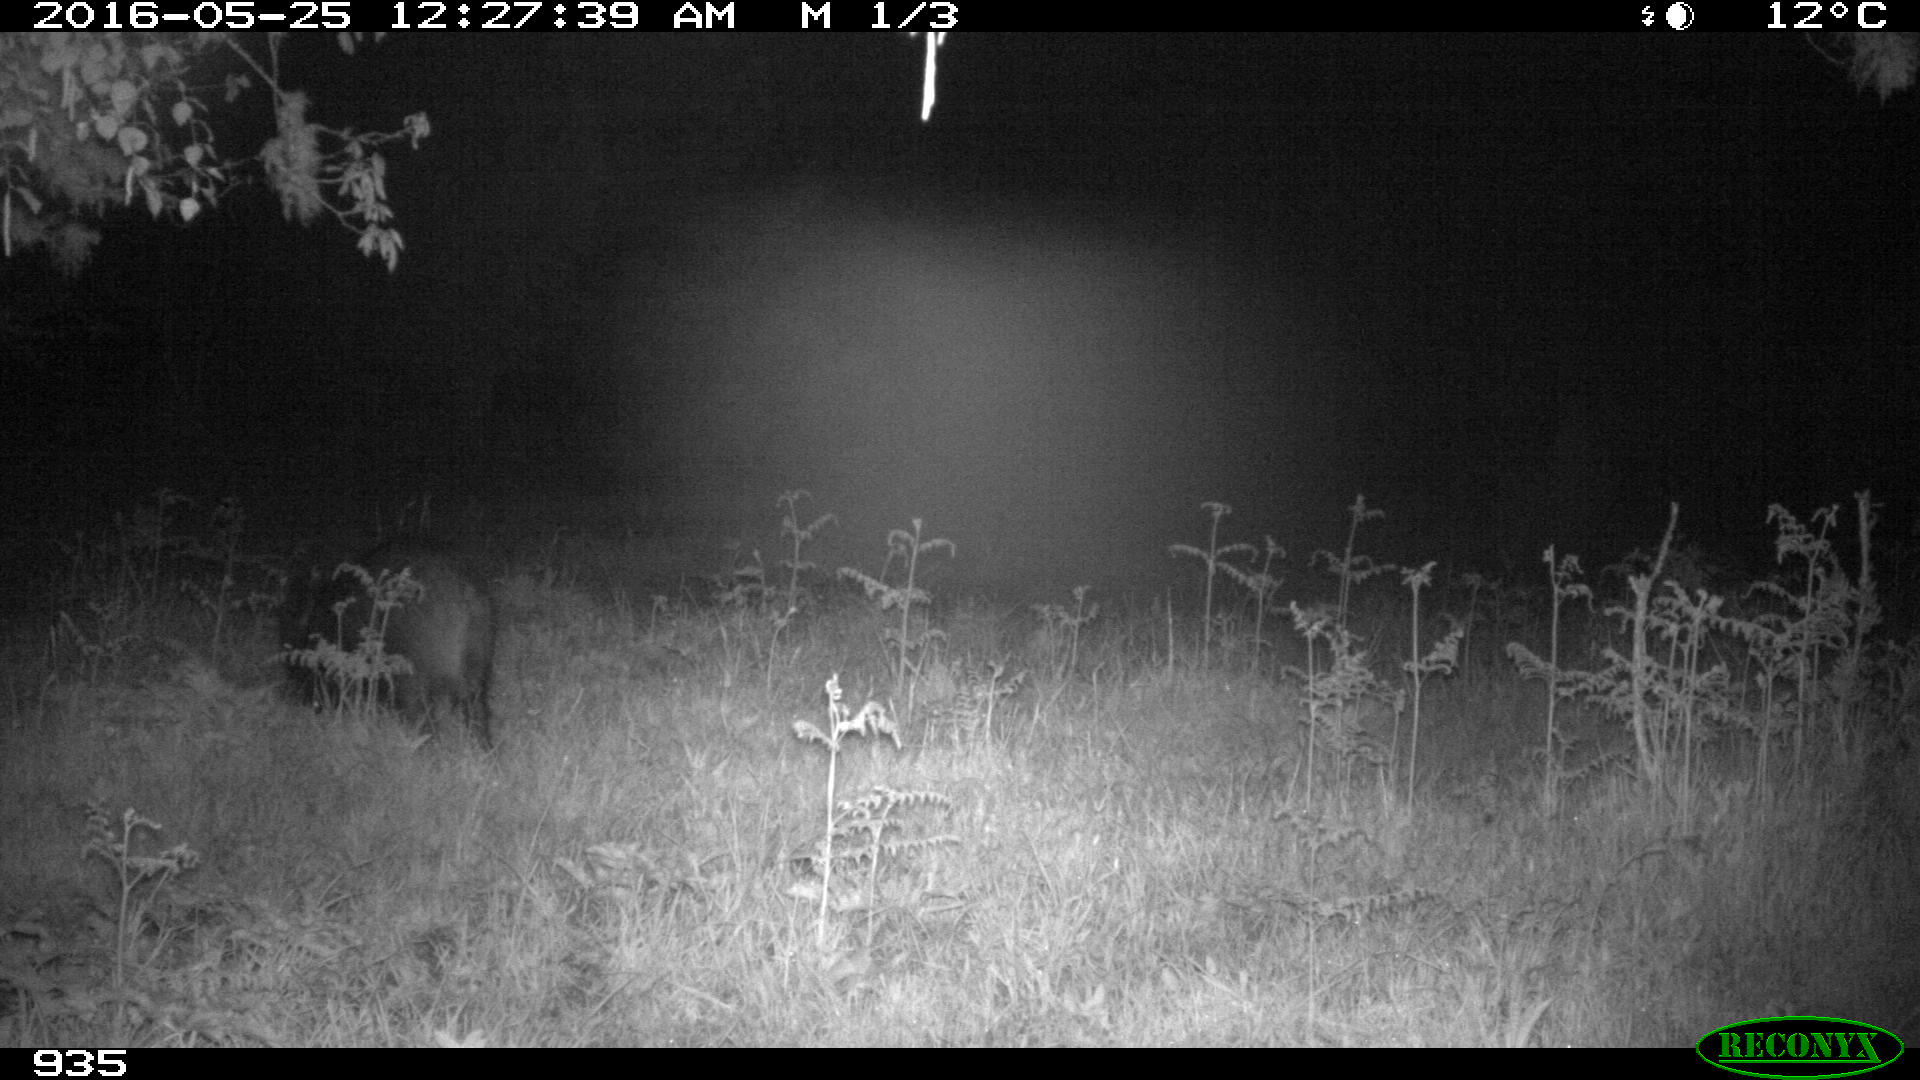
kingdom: Animalia
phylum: Chordata
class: Mammalia
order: Artiodactyla
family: Suidae
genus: Sus
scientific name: Sus scrofa
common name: Wild boar
